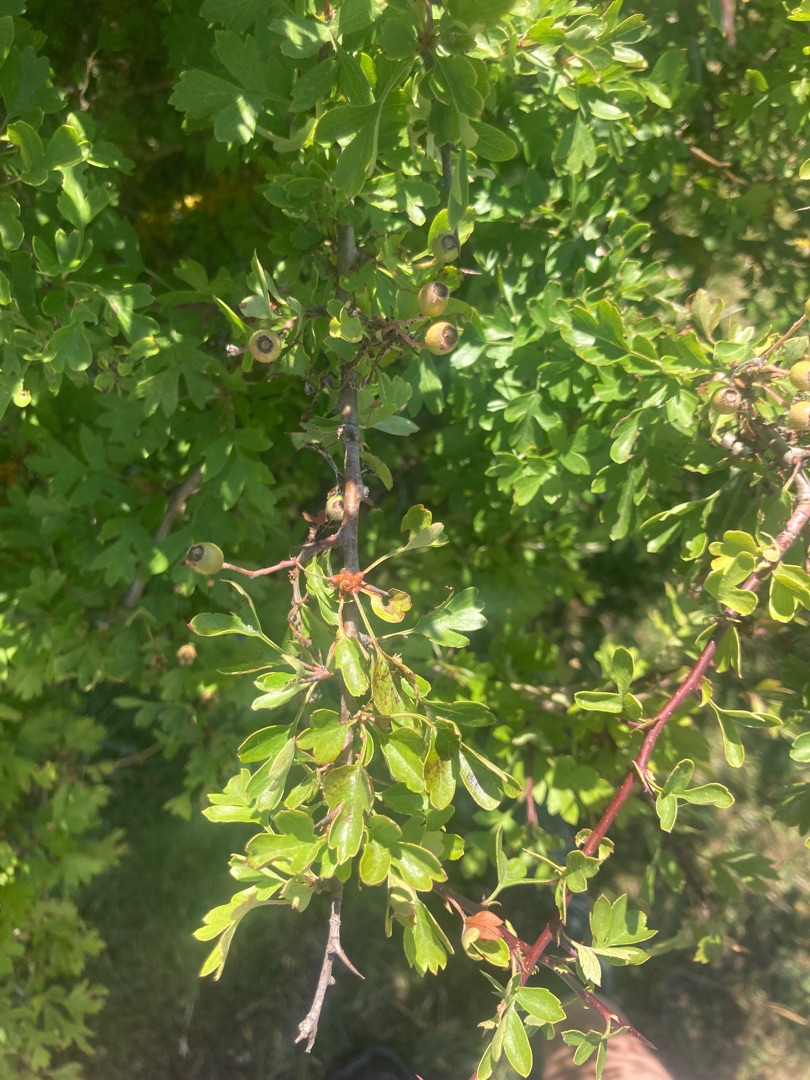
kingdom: Plantae
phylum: Tracheophyta
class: Magnoliopsida
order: Rosales
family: Rosaceae
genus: Crataegus
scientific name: Crataegus monogyna
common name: Engriflet hvidtjørn
